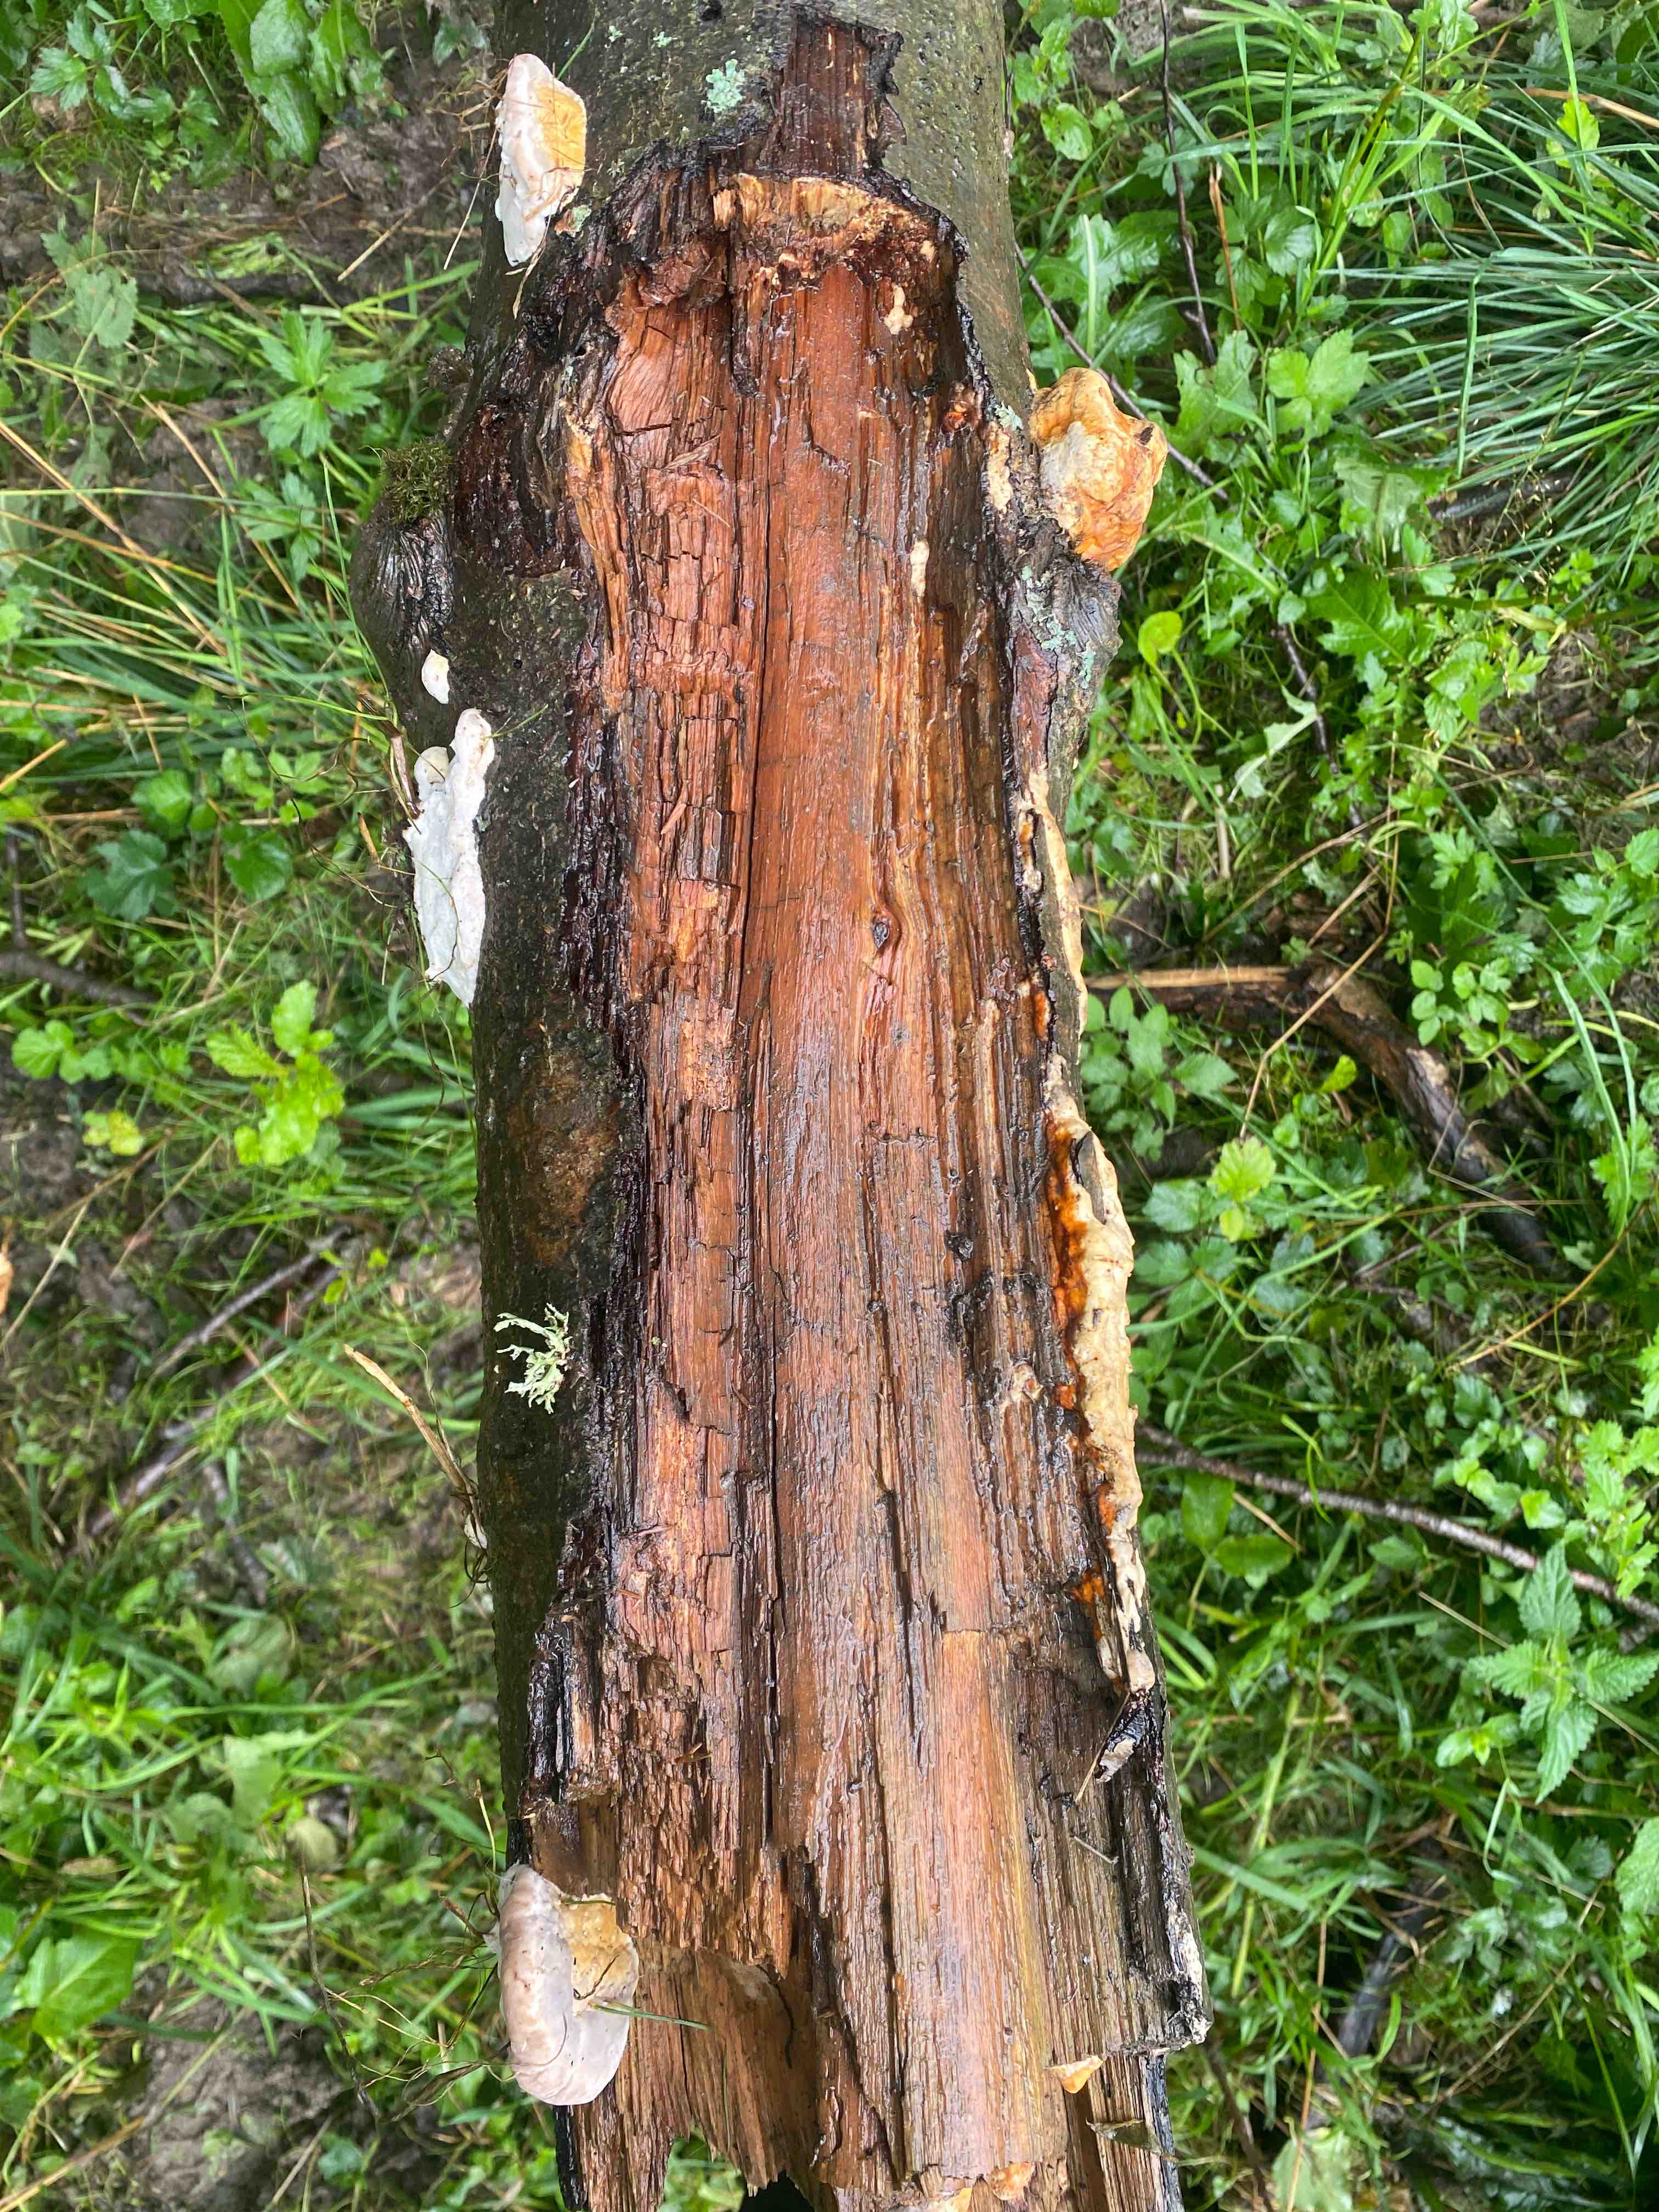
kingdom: Fungi
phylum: Basidiomycota
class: Agaricomycetes
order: Polyporales
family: Fomitopsidaceae
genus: Fomitopsis
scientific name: Fomitopsis pinicola
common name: randbæltet hovporesvamp
